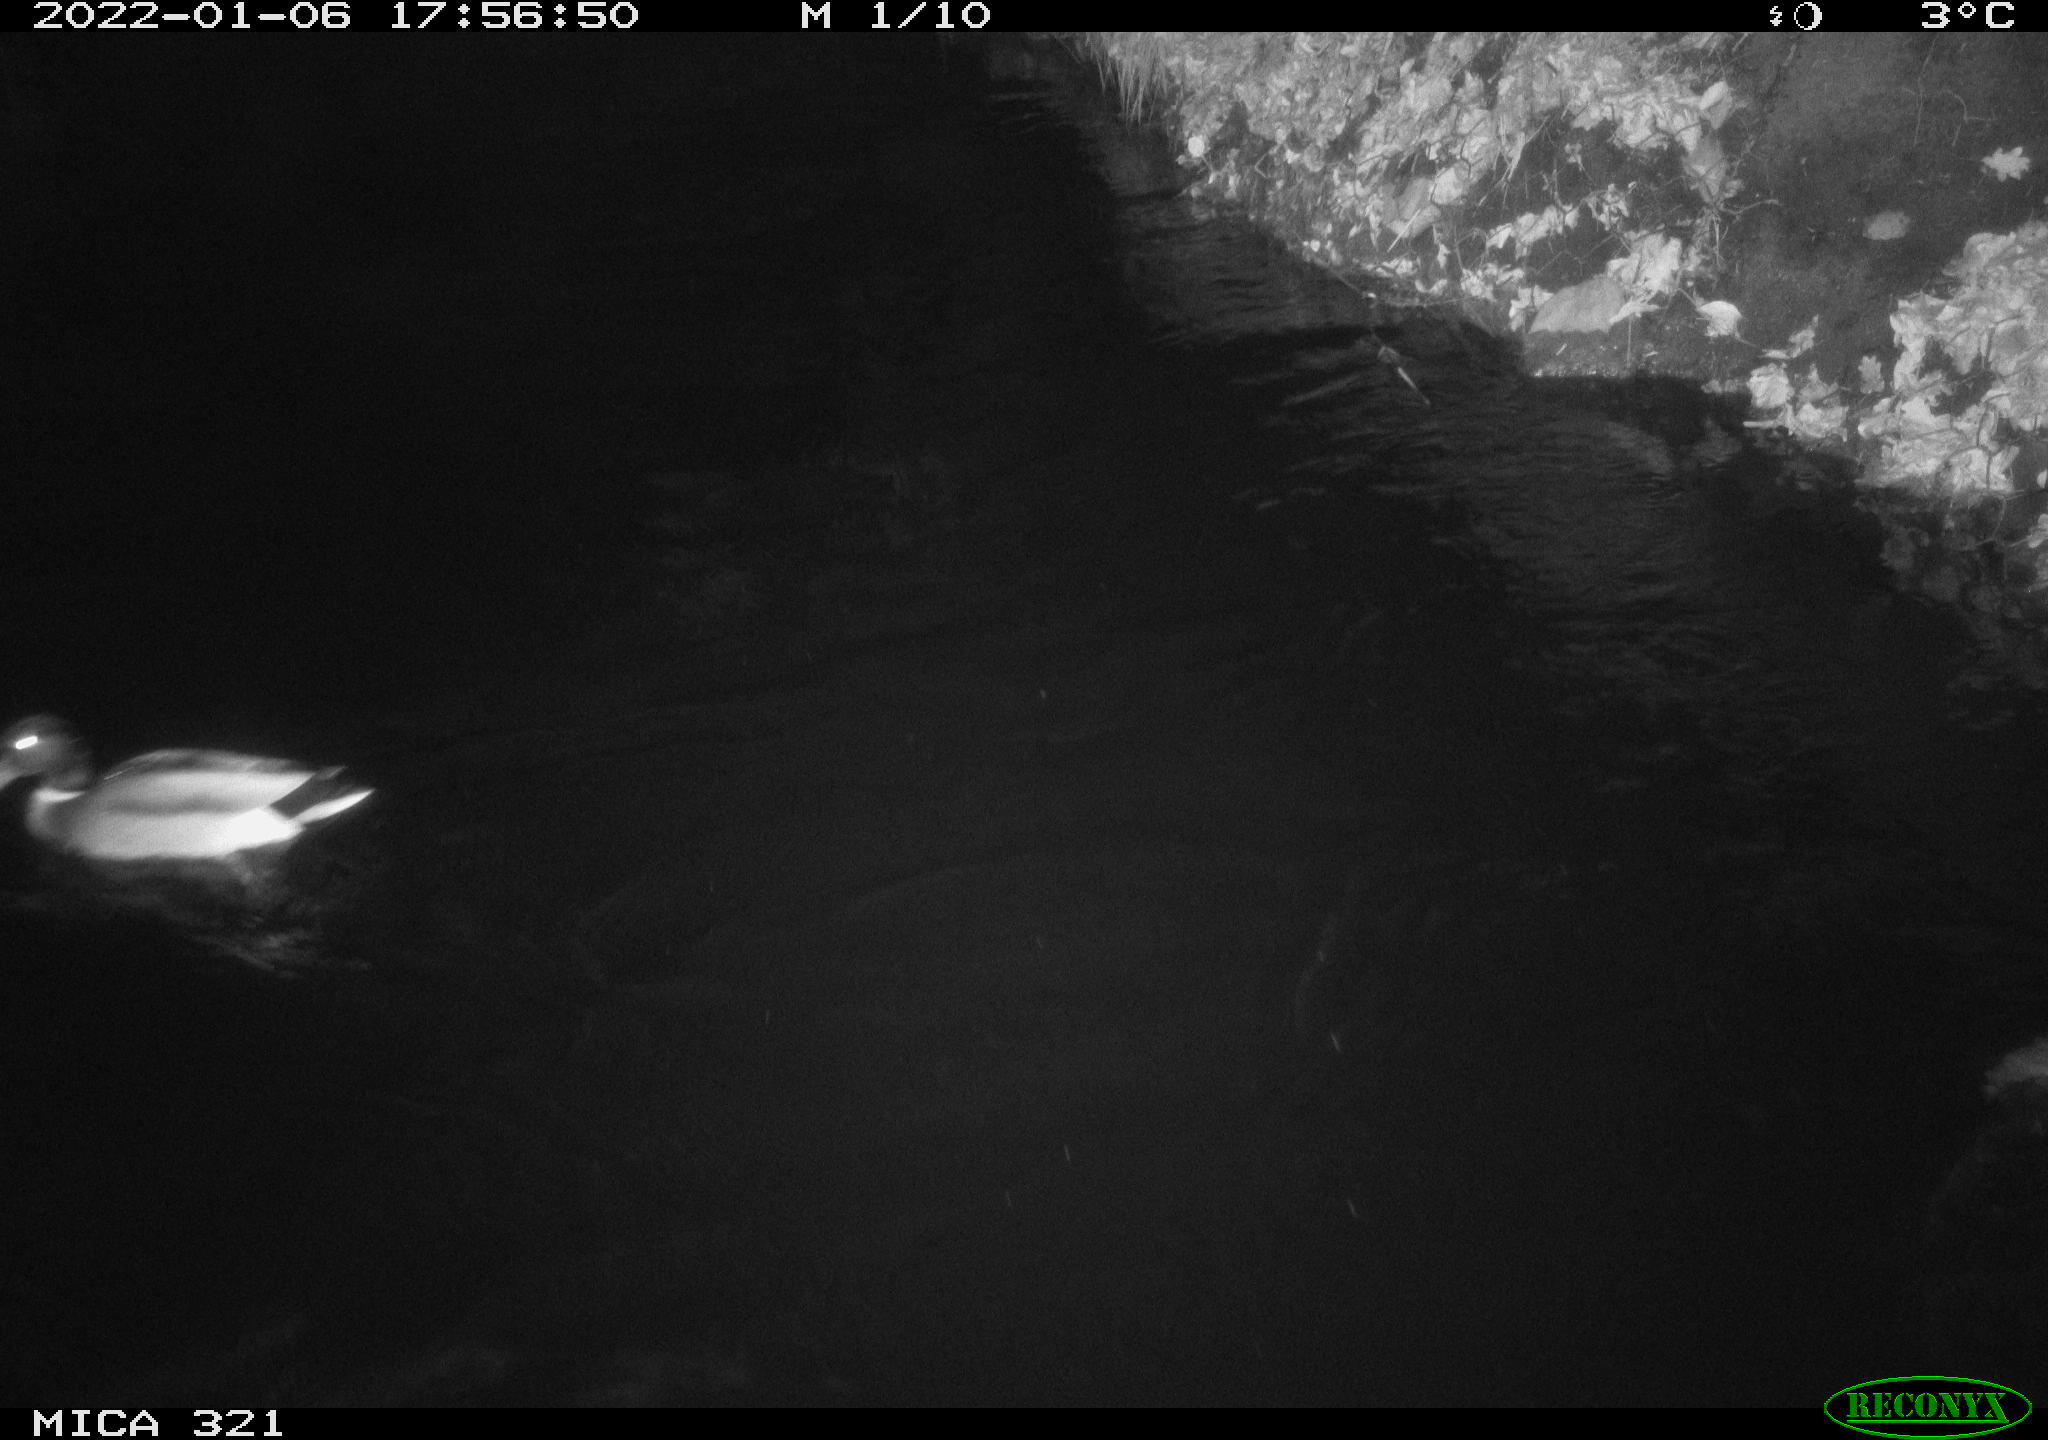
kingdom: Animalia
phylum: Chordata
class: Aves
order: Anseriformes
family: Anatidae
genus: Anas
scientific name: Anas
